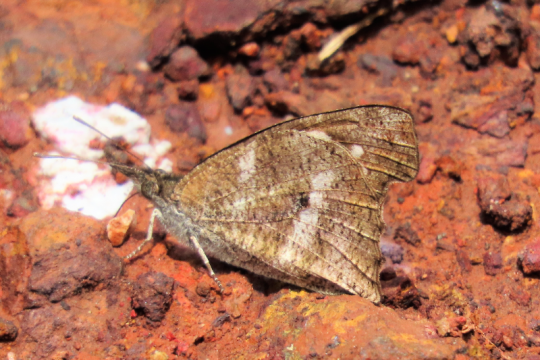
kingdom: Animalia
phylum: Arthropoda
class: Insecta
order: Lepidoptera
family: Nymphalidae
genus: Libythea
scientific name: Libythea labdaca
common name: Northern African Snout
